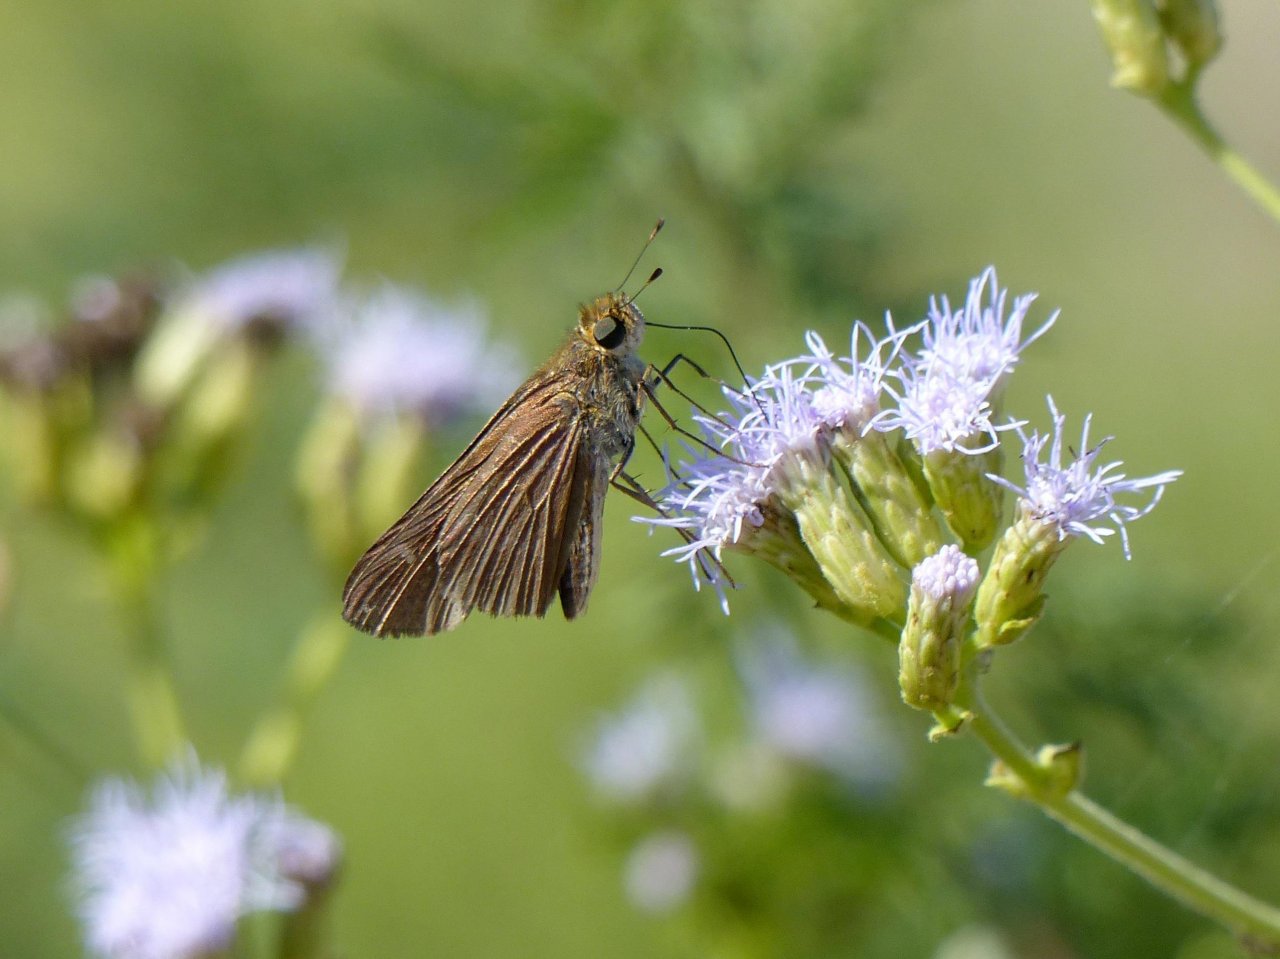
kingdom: Animalia
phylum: Arthropoda
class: Insecta
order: Lepidoptera
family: Hesperiidae
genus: Panoquina
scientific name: Panoquina ocola
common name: Ocola Skipper
